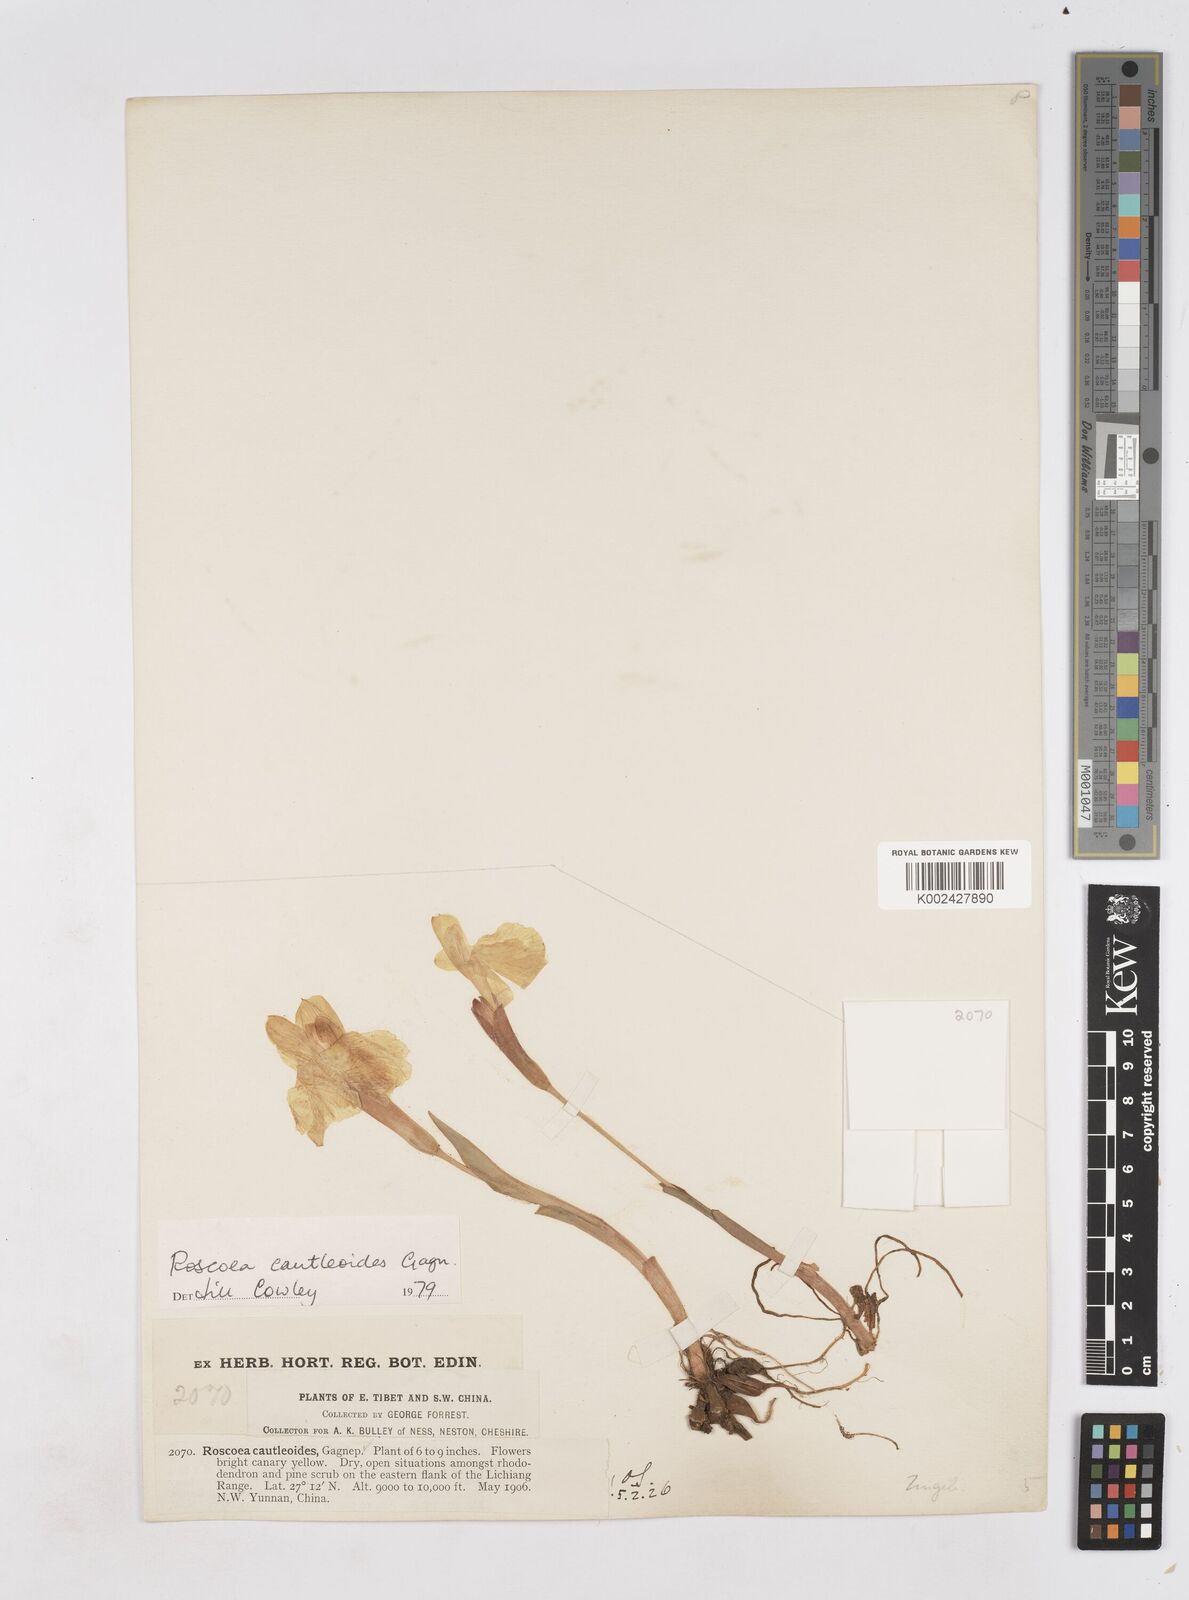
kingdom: Plantae
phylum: Tracheophyta
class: Liliopsida
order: Zingiberales
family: Zingiberaceae
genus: Roscoea
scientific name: Roscoea cautleyoides
